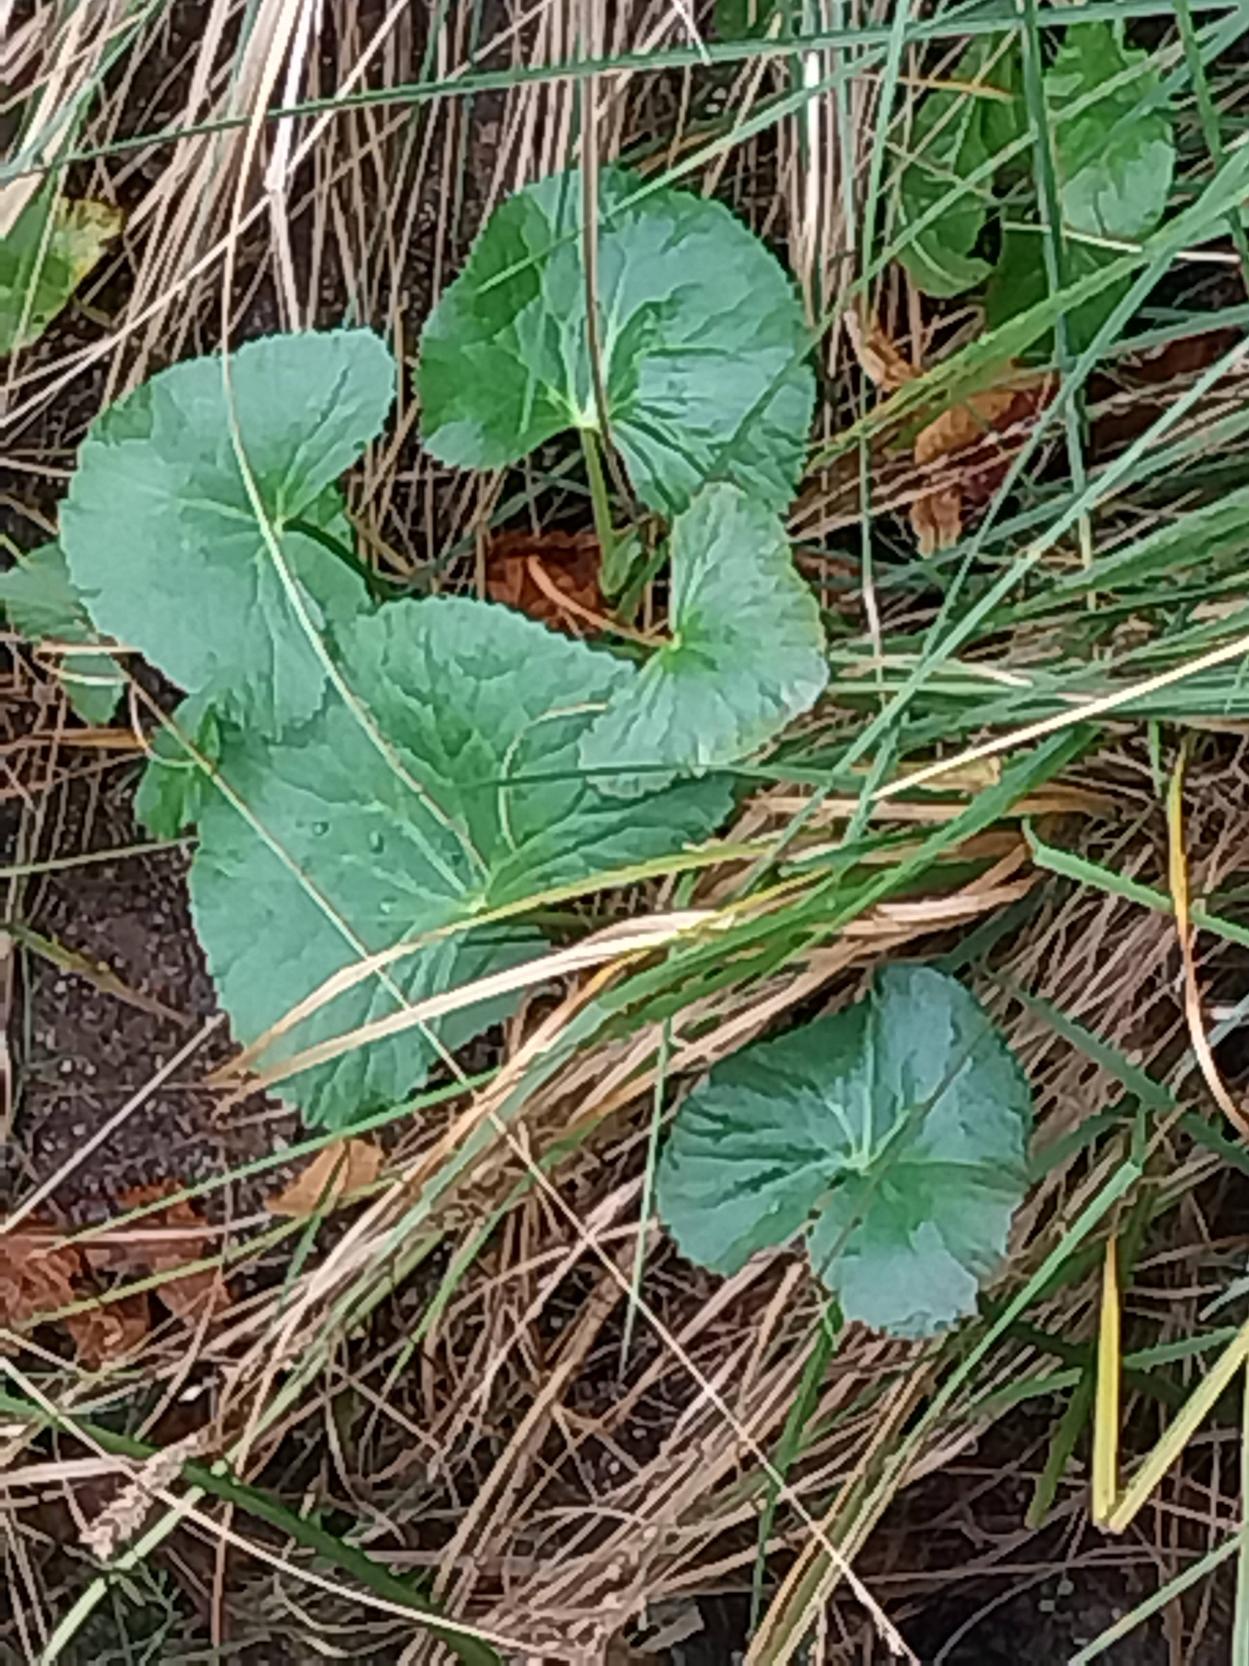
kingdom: Plantae
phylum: Tracheophyta
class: Magnoliopsida
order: Ranunculales
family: Ranunculaceae
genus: Caltha
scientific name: Caltha palustris
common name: Eng-kabbeleje
